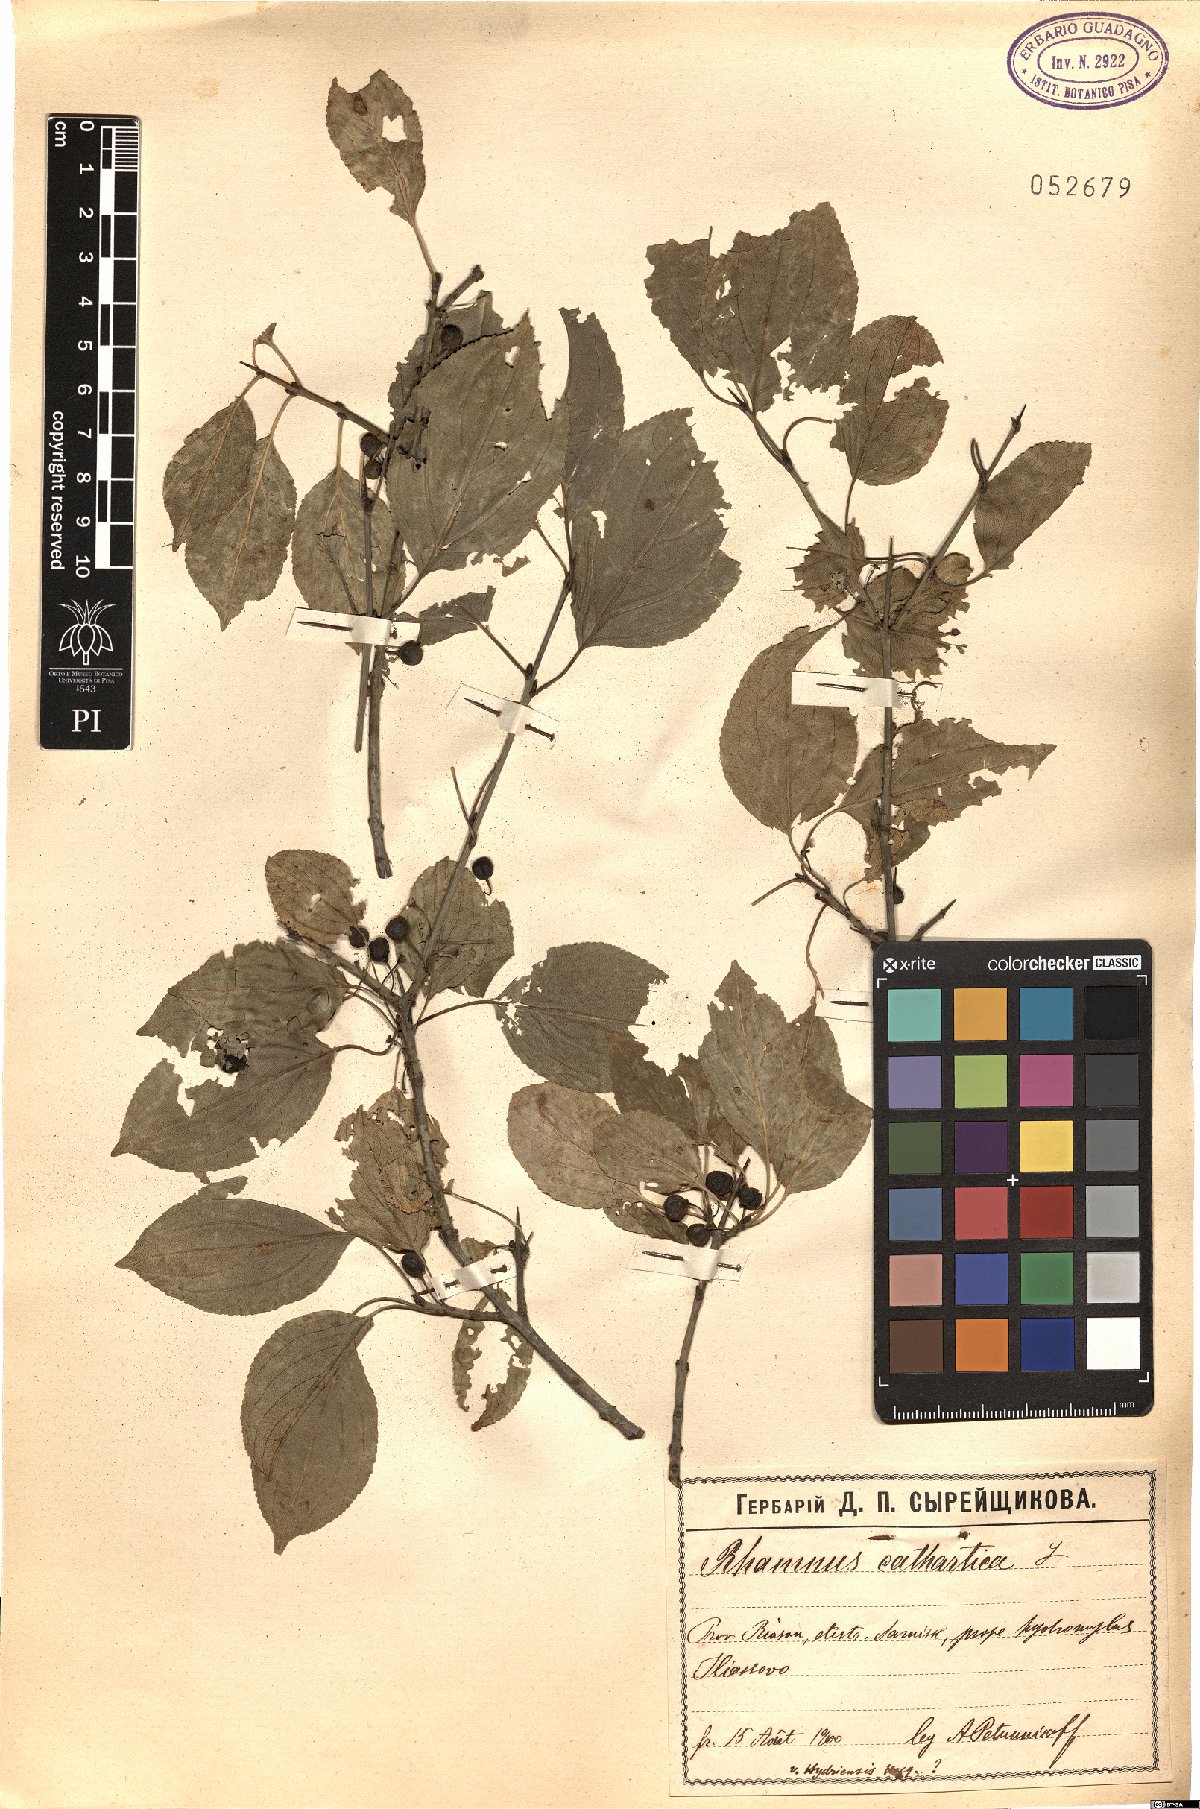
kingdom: Plantae
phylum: Tracheophyta
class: Magnoliopsida
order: Rosales
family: Rhamnaceae
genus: Rhamnus
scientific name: Rhamnus cathartica
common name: Common buckthorn
